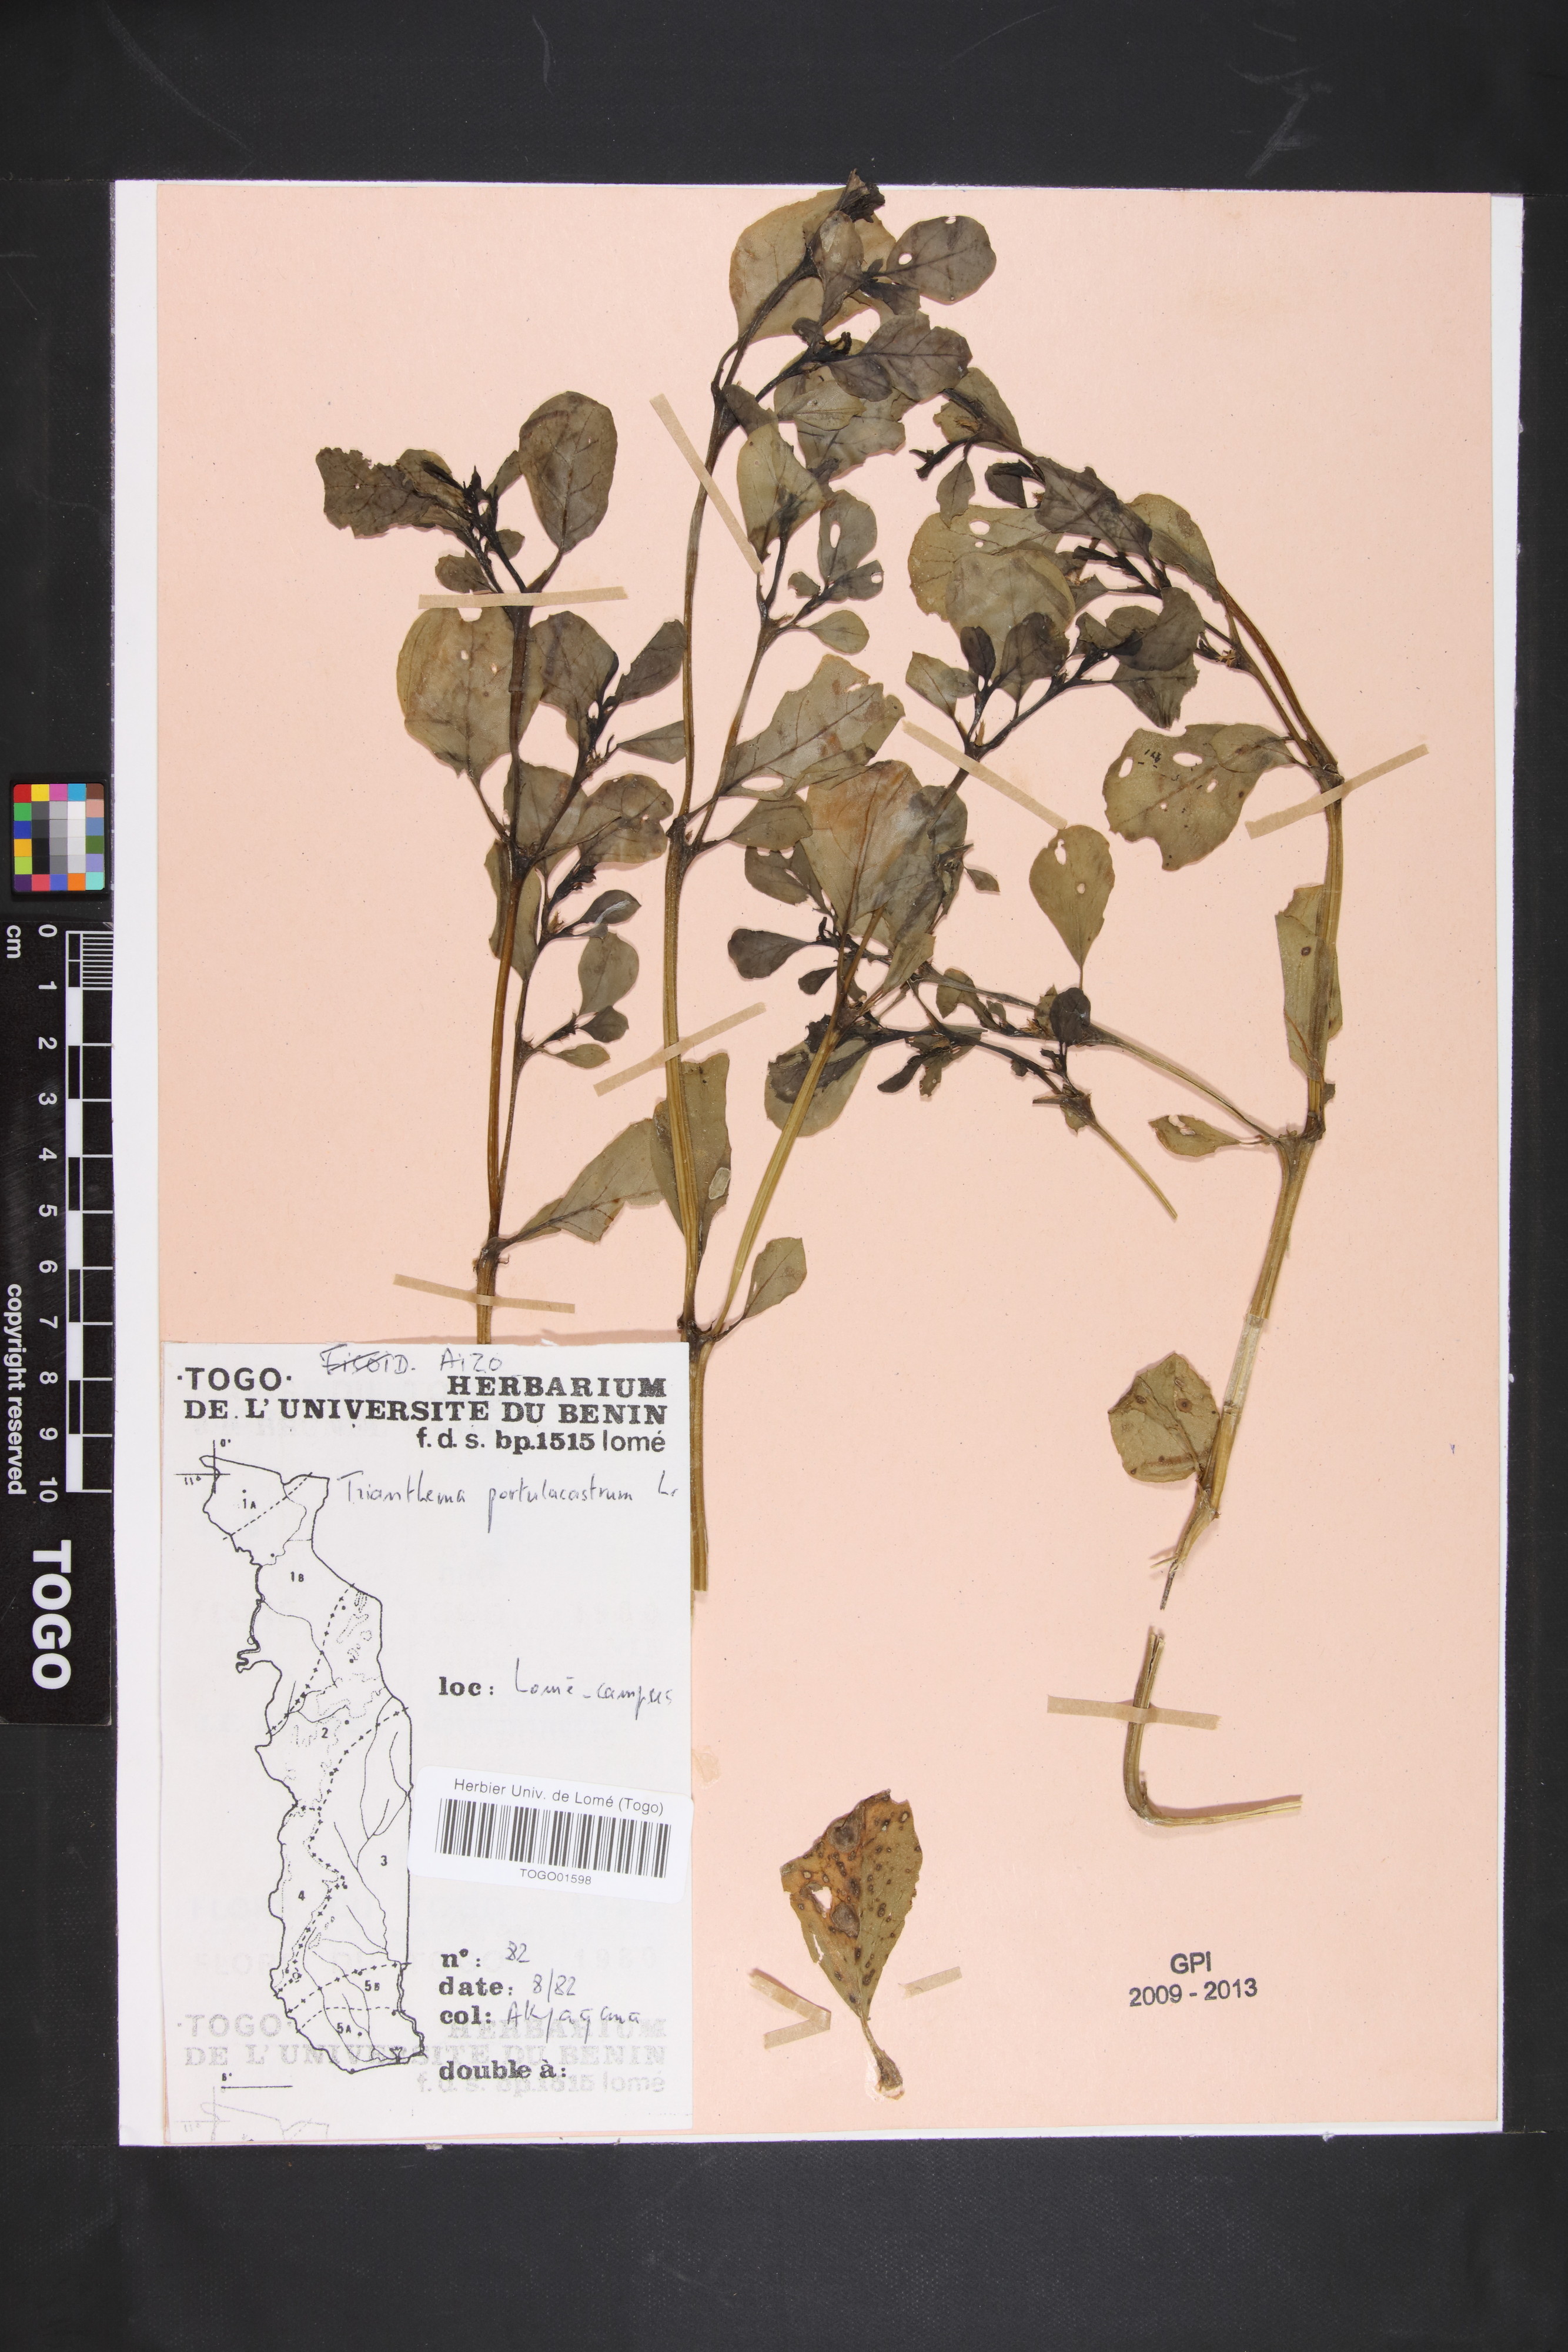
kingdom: Plantae
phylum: Tracheophyta
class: Magnoliopsida
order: Caryophyllales
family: Aizoaceae
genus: Trianthema
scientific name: Trianthema portulacastrum
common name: Desert horsepurslane
